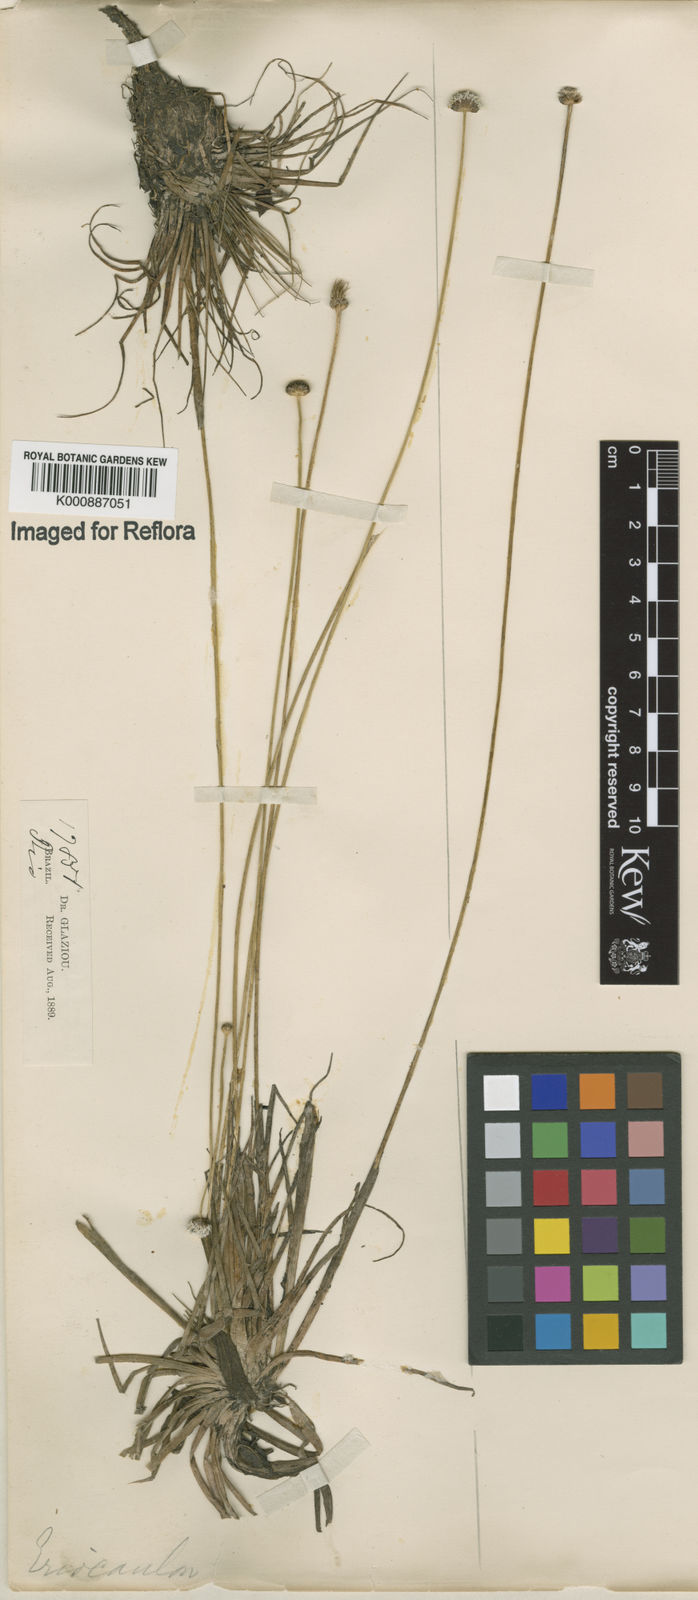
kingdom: Plantae
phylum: Tracheophyta
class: Liliopsida
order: Poales
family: Eriocaulaceae
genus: Eriocaulon
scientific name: Eriocaulon modestum
